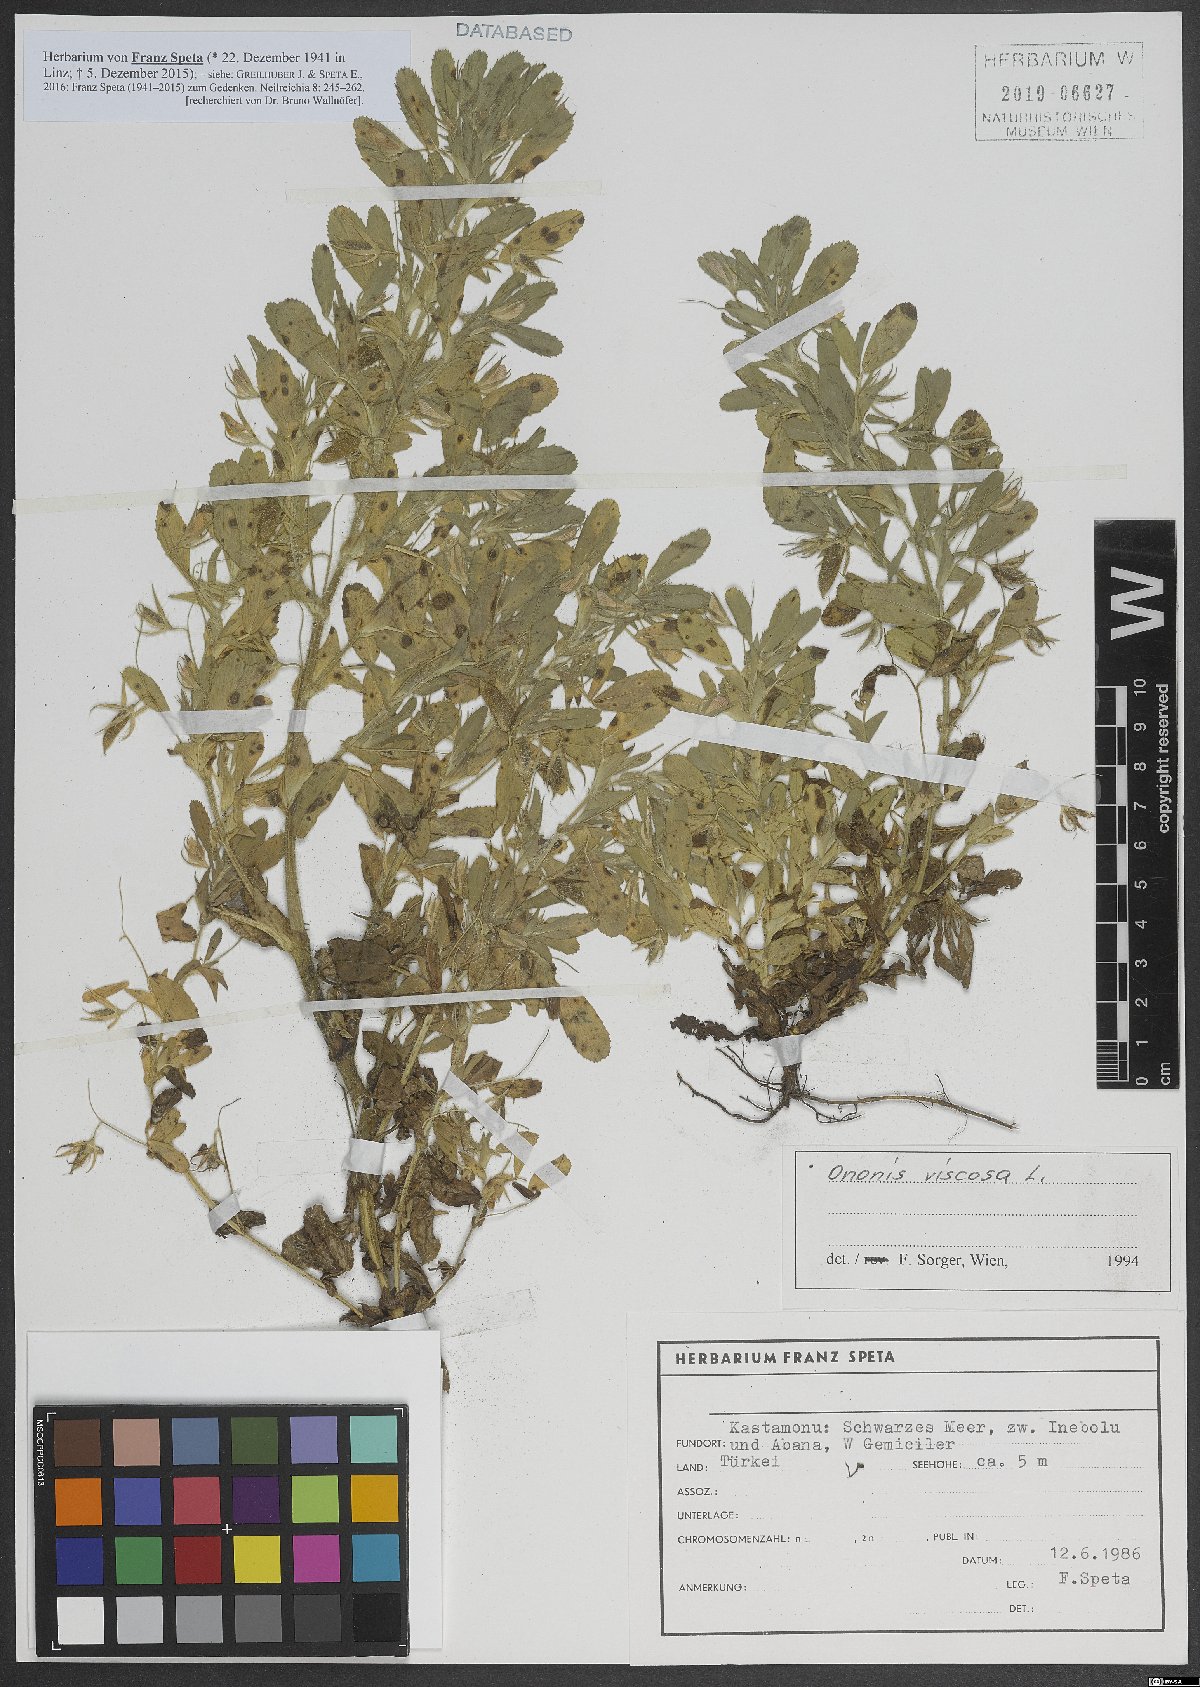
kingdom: Plantae
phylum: Tracheophyta
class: Magnoliopsida
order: Fabales
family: Fabaceae
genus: Ononis
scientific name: Ononis viscosa
